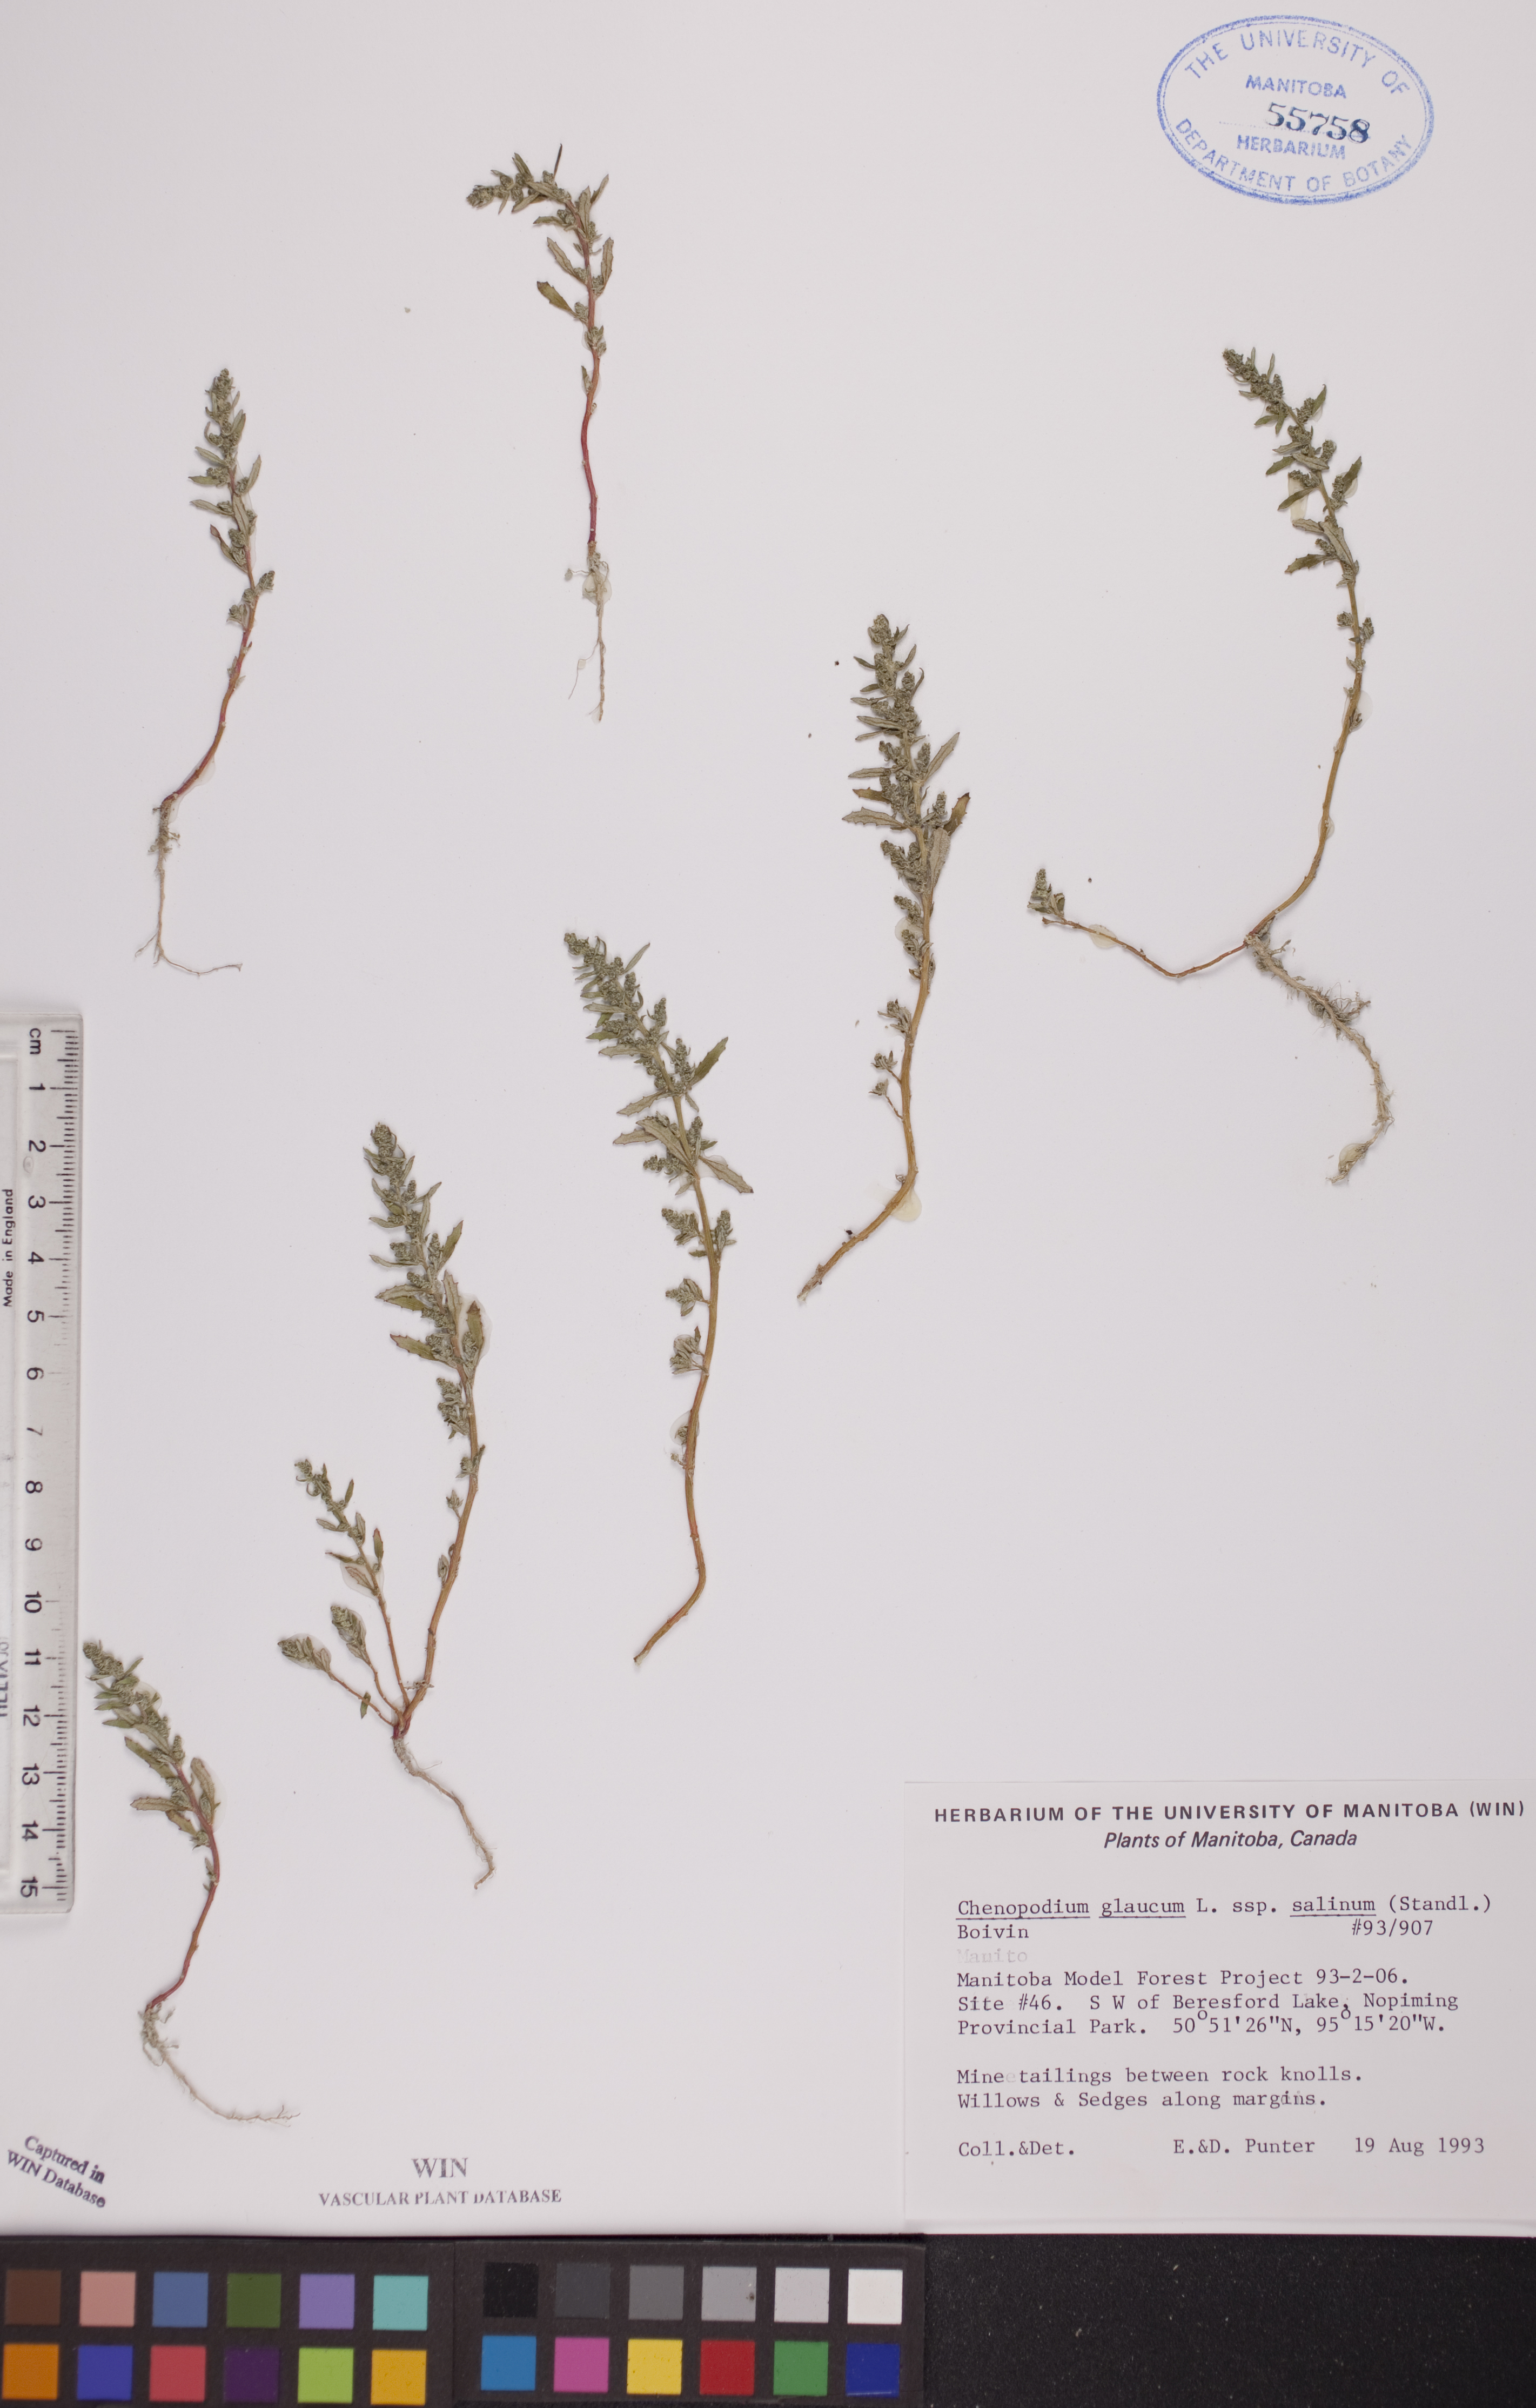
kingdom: Plantae
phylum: Tracheophyta
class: Magnoliopsida
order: Caryophyllales
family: Amaranthaceae
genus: Oxybasis
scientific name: Oxybasis salina
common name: Rocky mountain goosefoot
